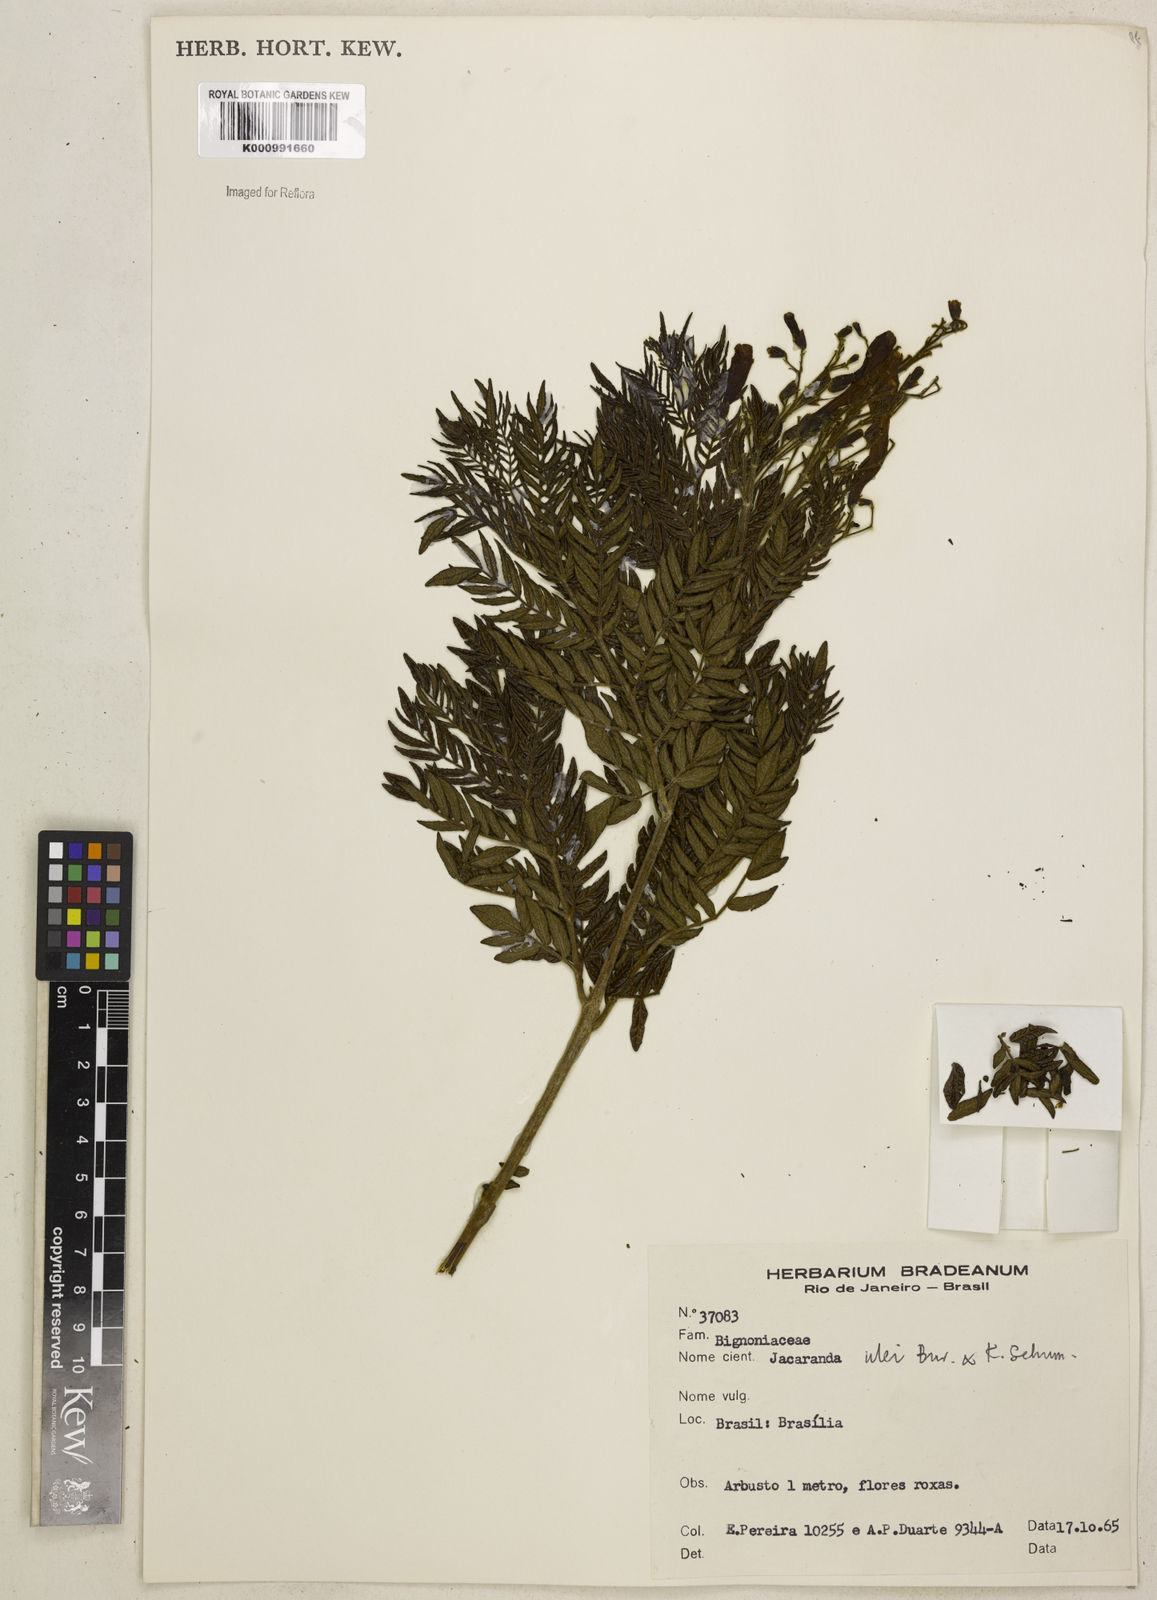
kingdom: Plantae
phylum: Tracheophyta
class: Magnoliopsida
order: Lamiales
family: Bignoniaceae
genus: Jacaranda
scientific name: Jacaranda ulei
